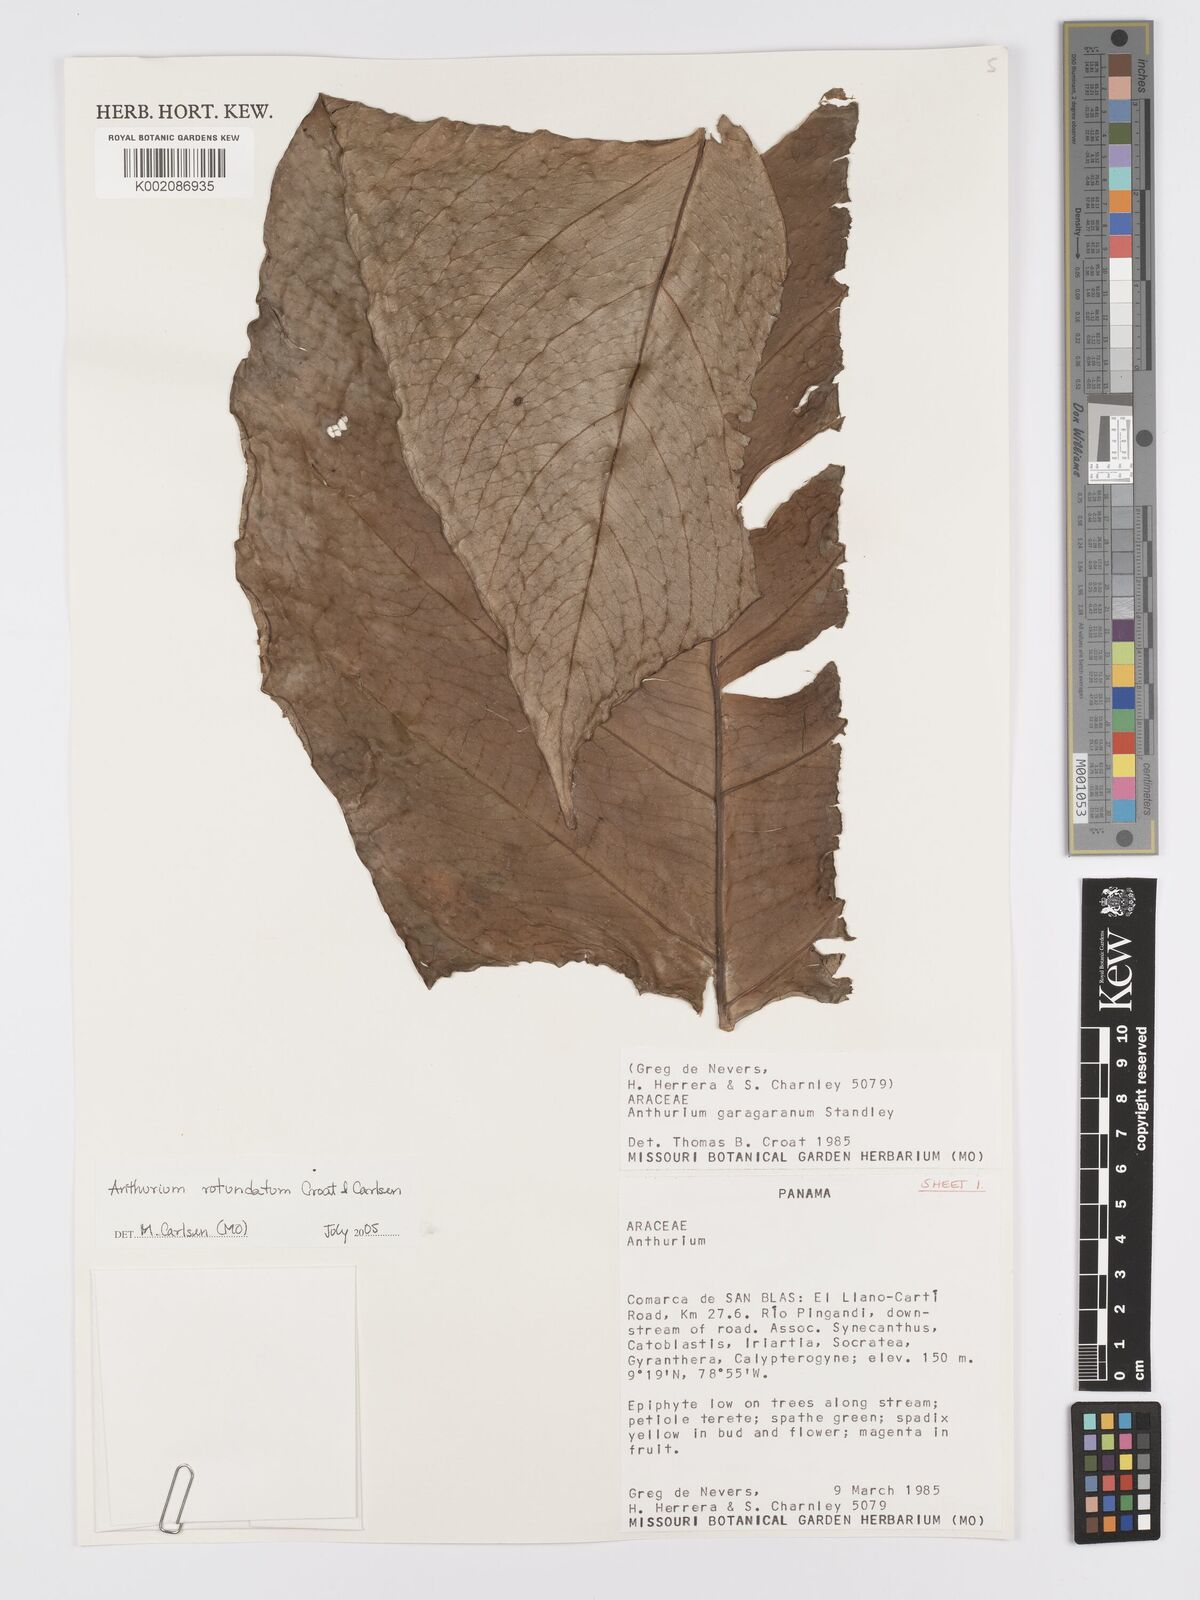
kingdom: Plantae
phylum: Tracheophyta
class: Liliopsida
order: Alismatales
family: Araceae
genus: Anthurium
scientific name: Anthurium rotundatum
